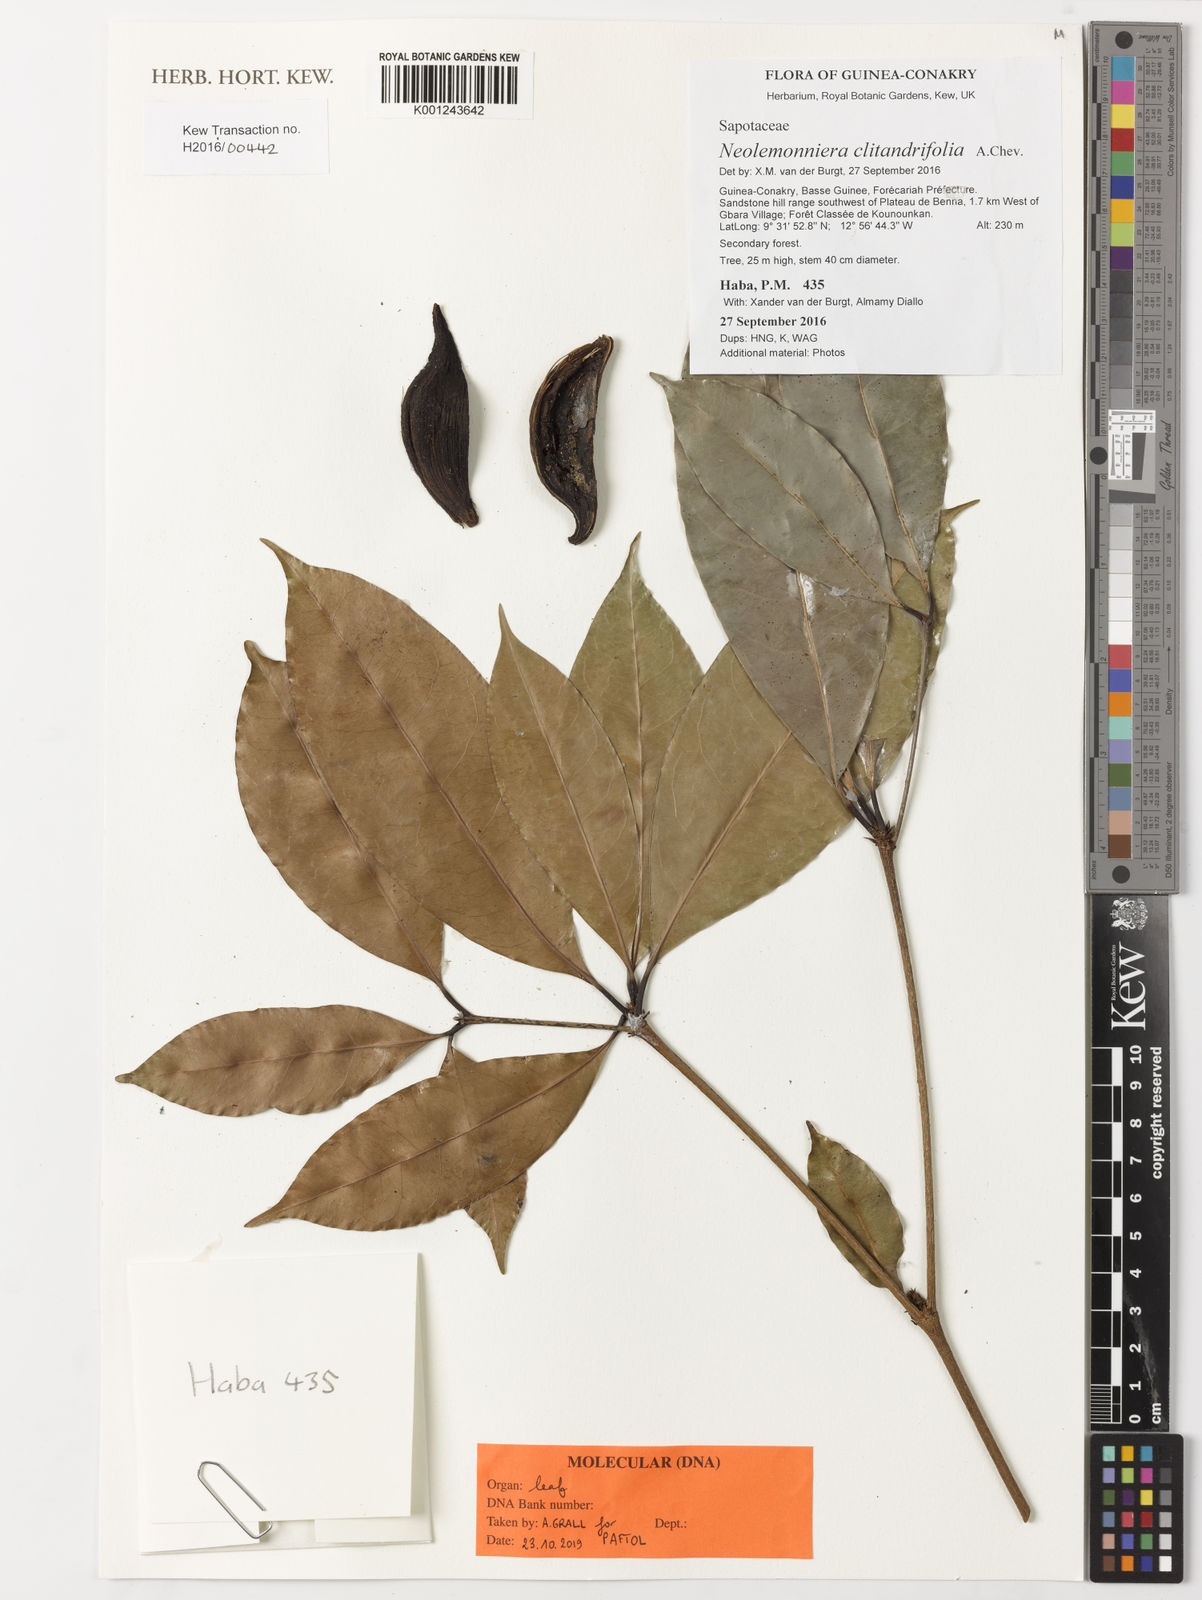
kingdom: Plantae
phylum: Tracheophyta
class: Magnoliopsida
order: Ericales
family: Sapotaceae
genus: Neolemonniera
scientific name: Neolemonniera clitandrifolia
